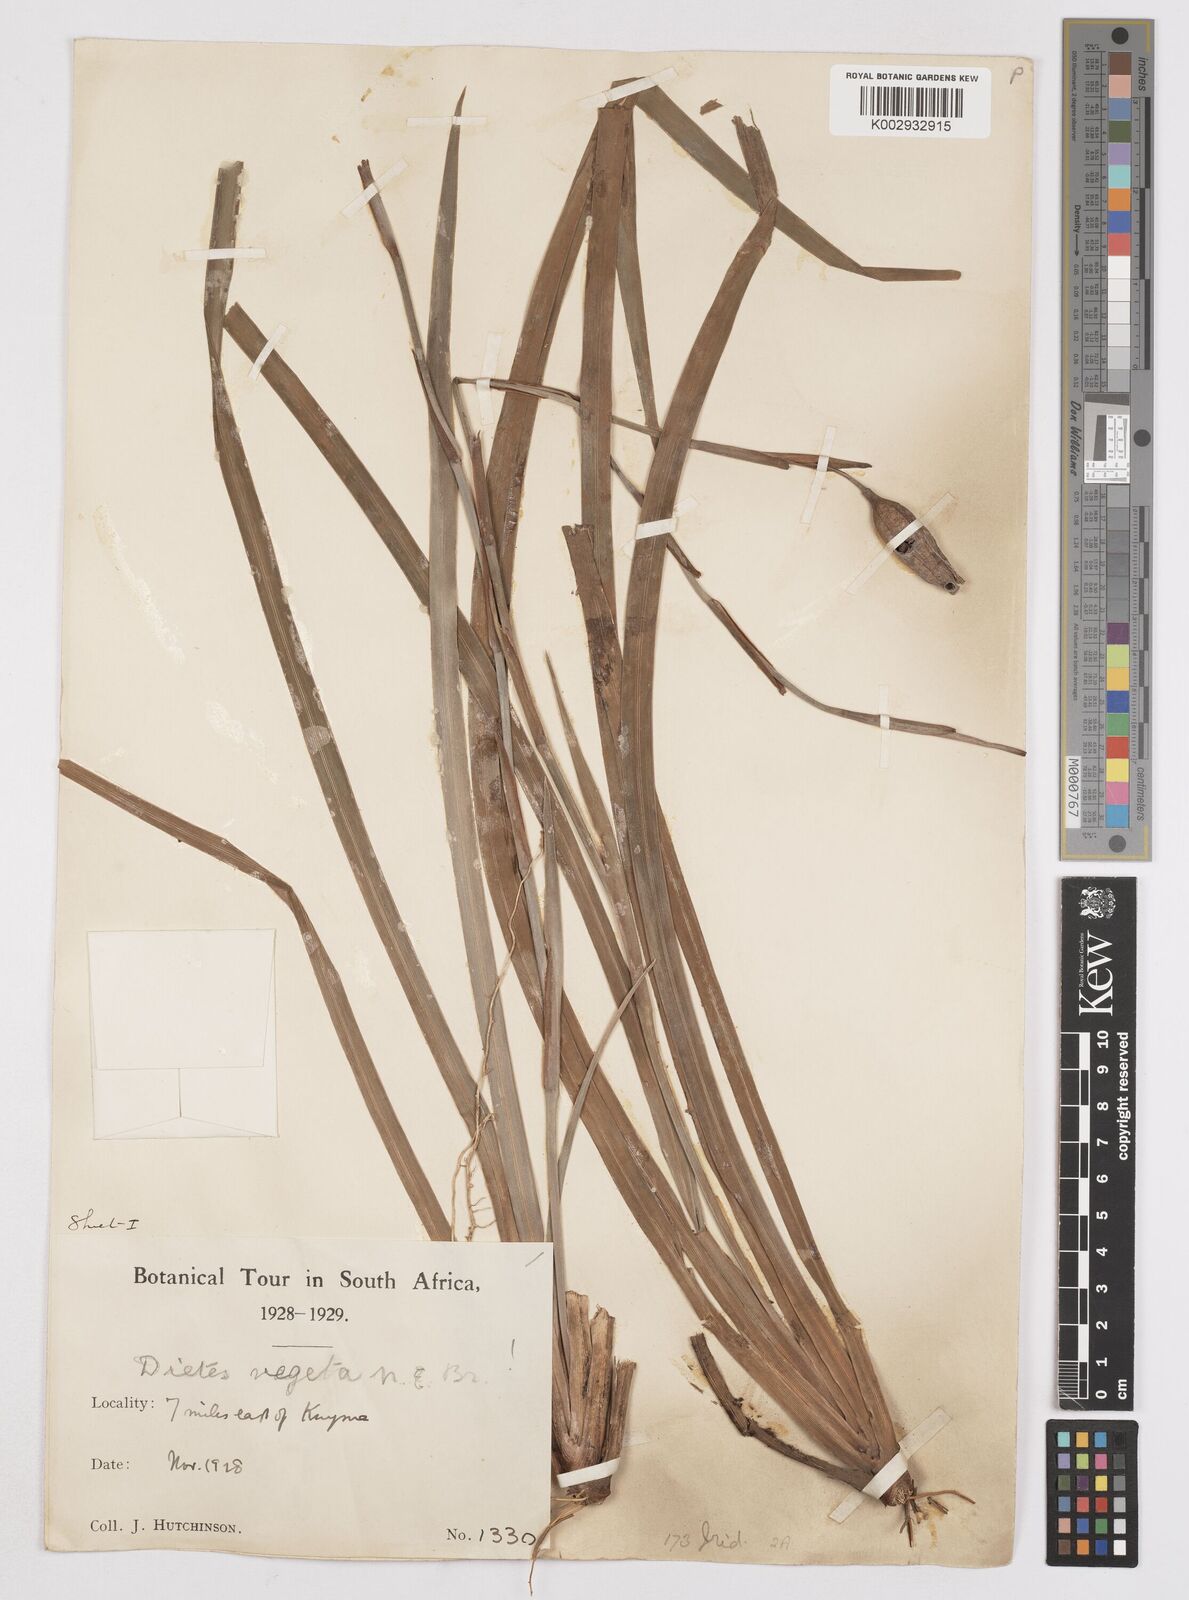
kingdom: Plantae
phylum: Tracheophyta
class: Liliopsida
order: Asparagales
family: Iridaceae
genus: Dietes
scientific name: Dietes iridioides
